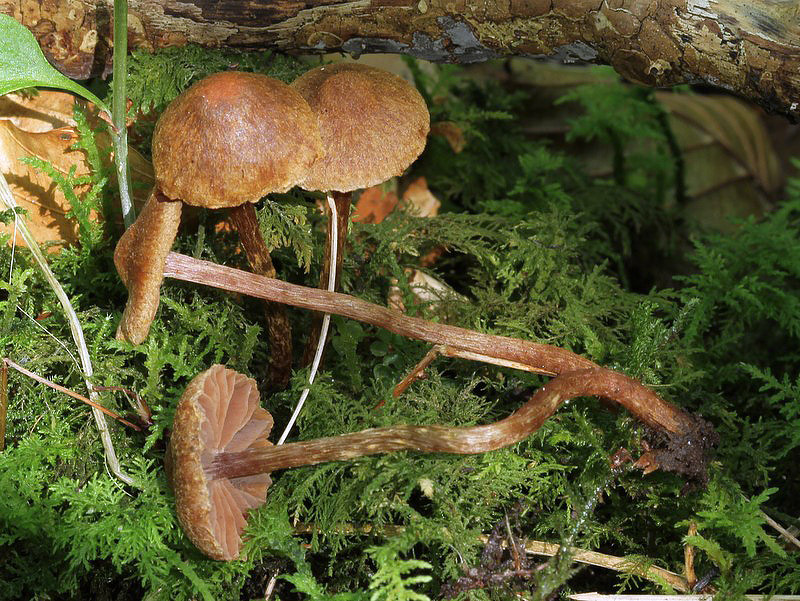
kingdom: Fungi
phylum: Basidiomycota
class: Agaricomycetes
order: Agaricales
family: Cortinariaceae
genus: Cortinarius
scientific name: Cortinarius helvelloides
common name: fjernbladet slørhat
